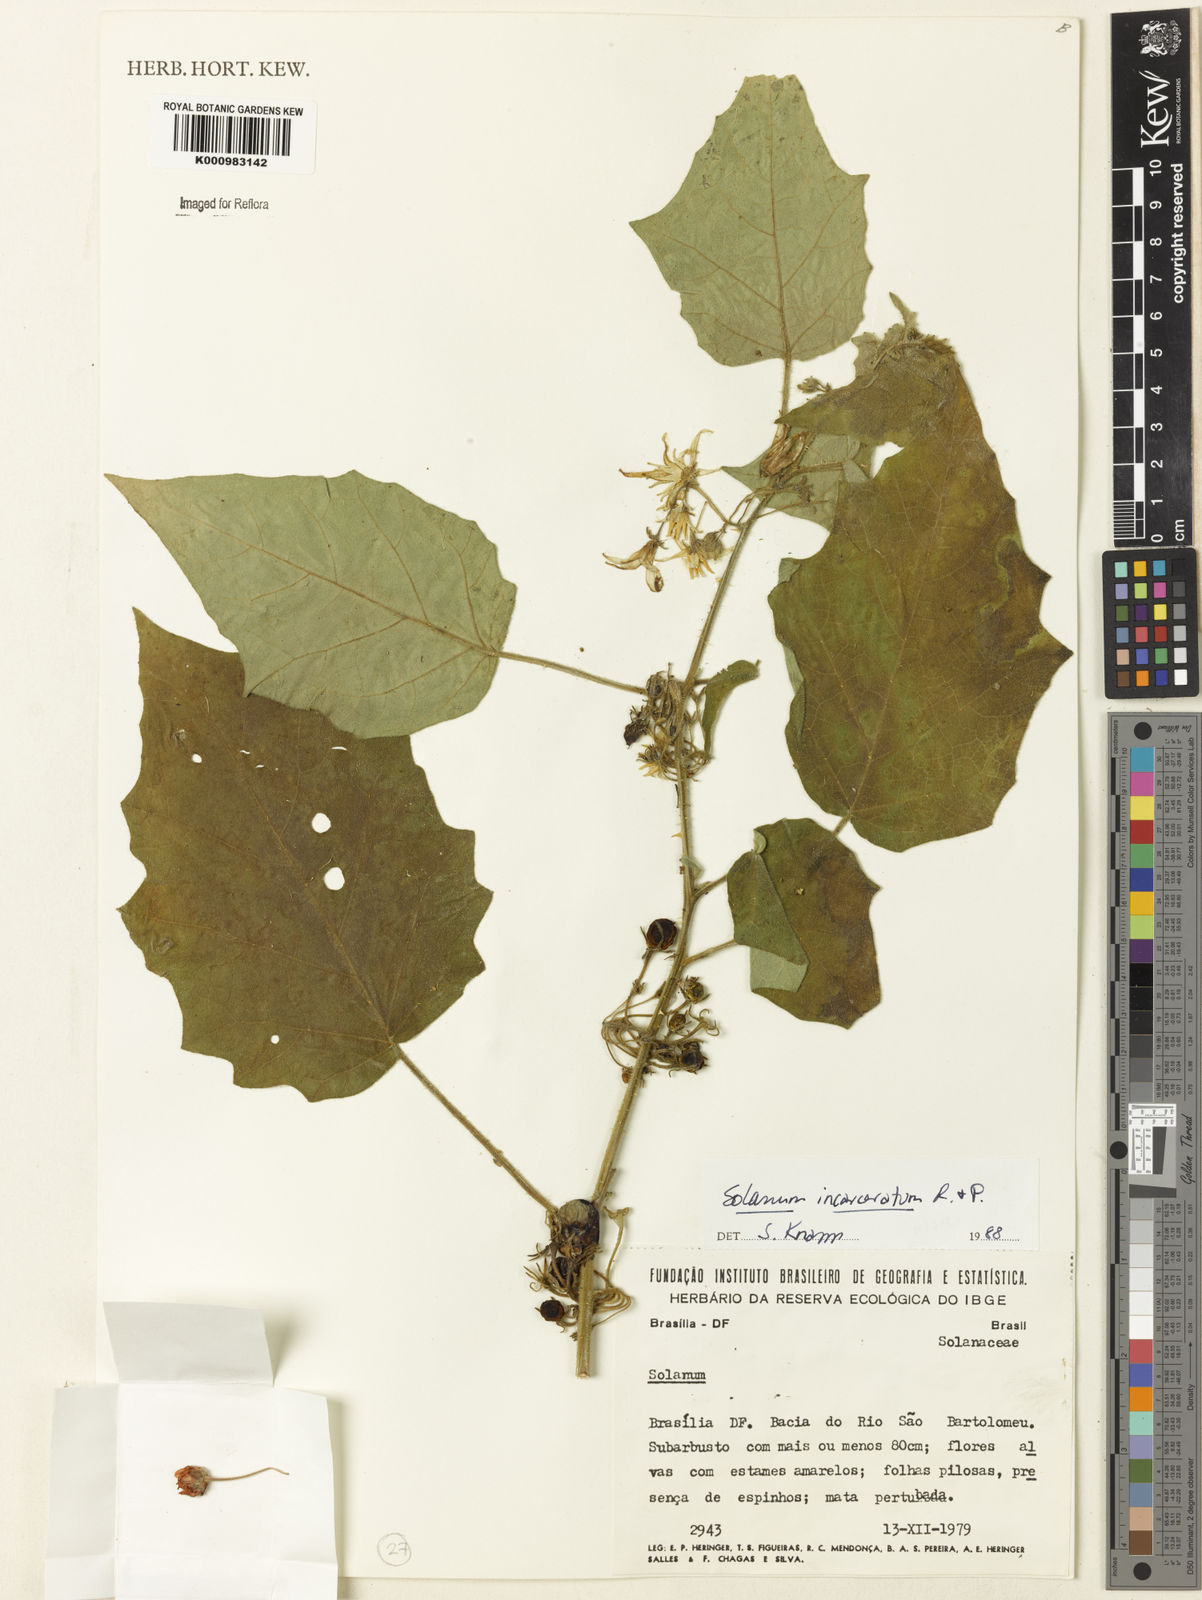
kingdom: Plantae
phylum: Tracheophyta
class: Magnoliopsida
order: Solanales
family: Solanaceae
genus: Solanum
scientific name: Solanum incarceratum
